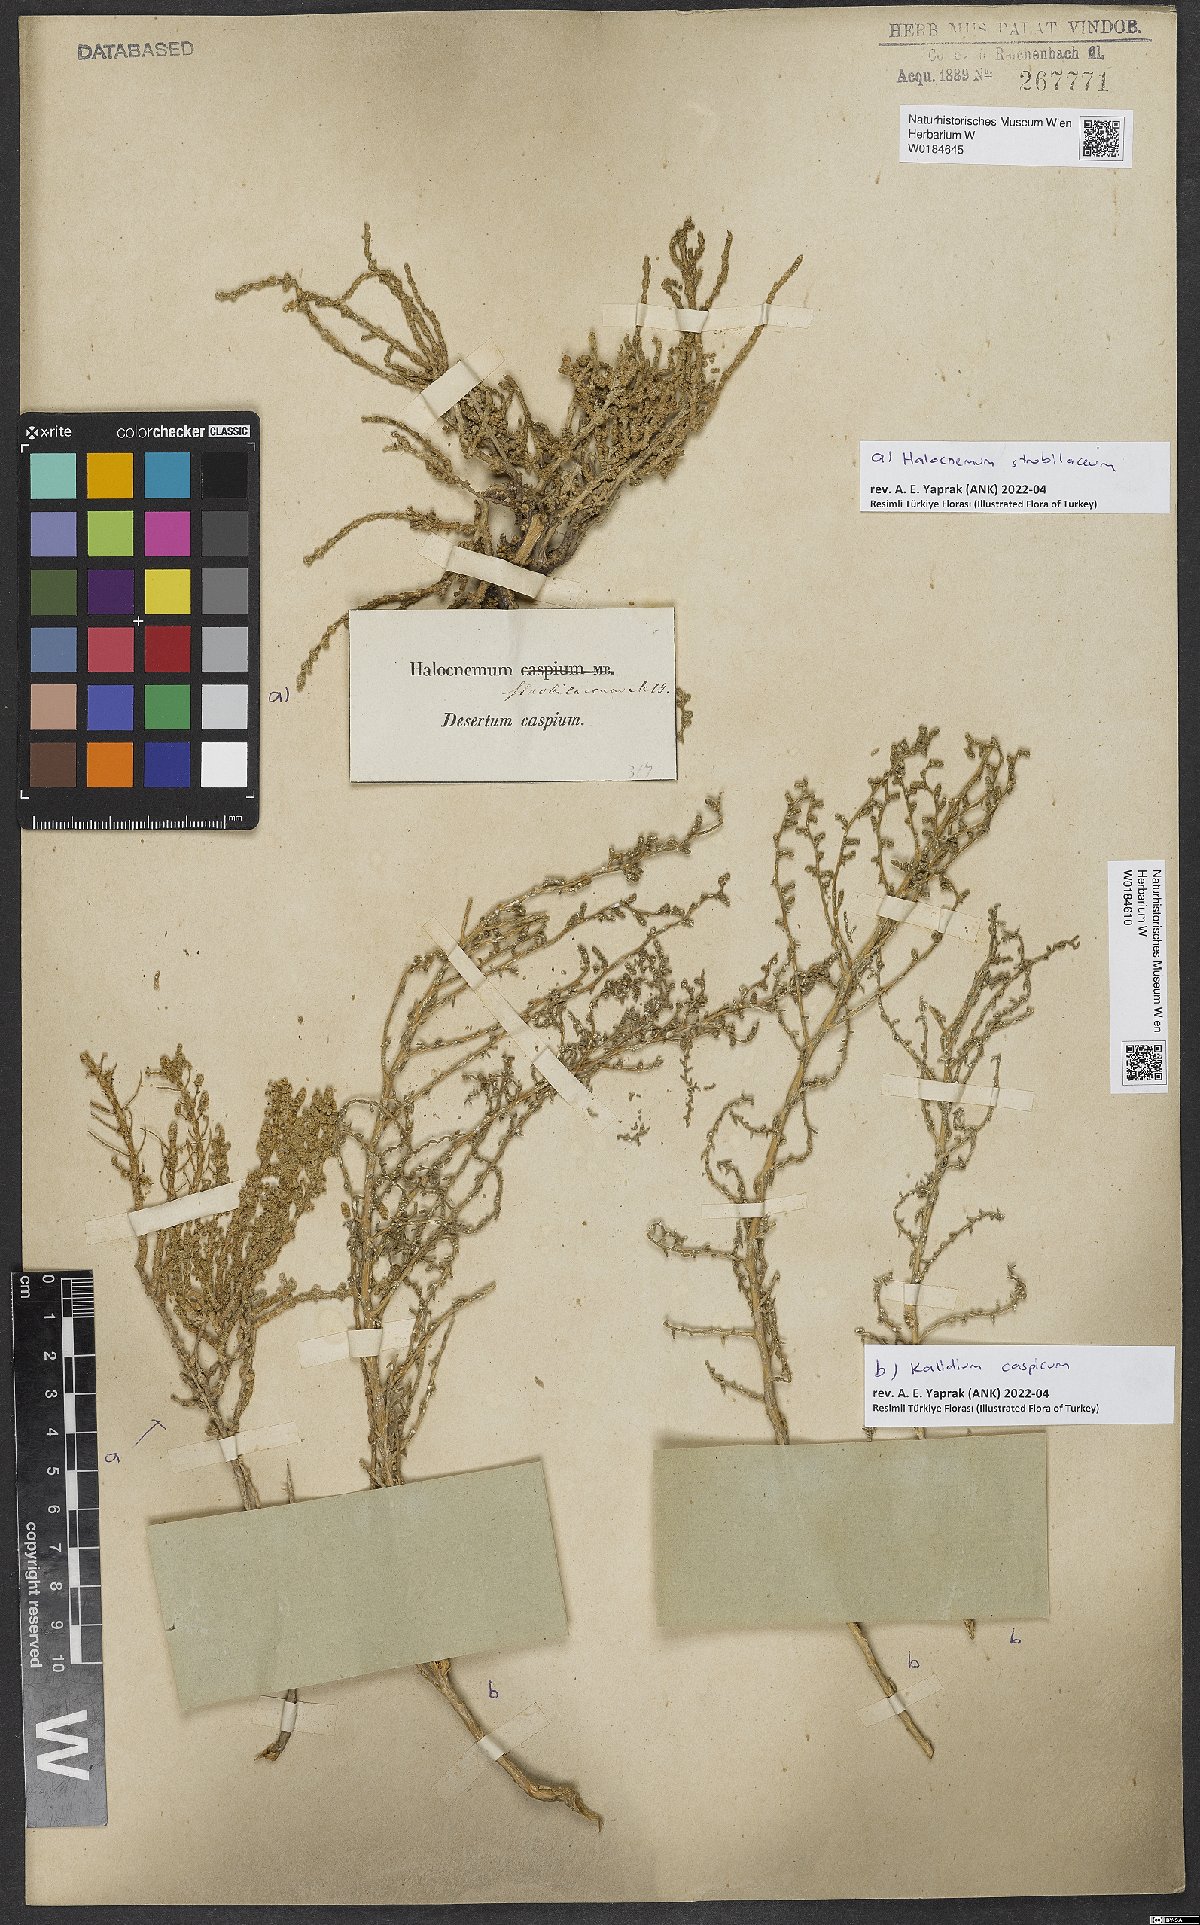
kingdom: Plantae
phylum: Tracheophyta
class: Magnoliopsida
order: Caryophyllales
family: Amaranthaceae
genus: Kalidium
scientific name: Kalidium caspicum
